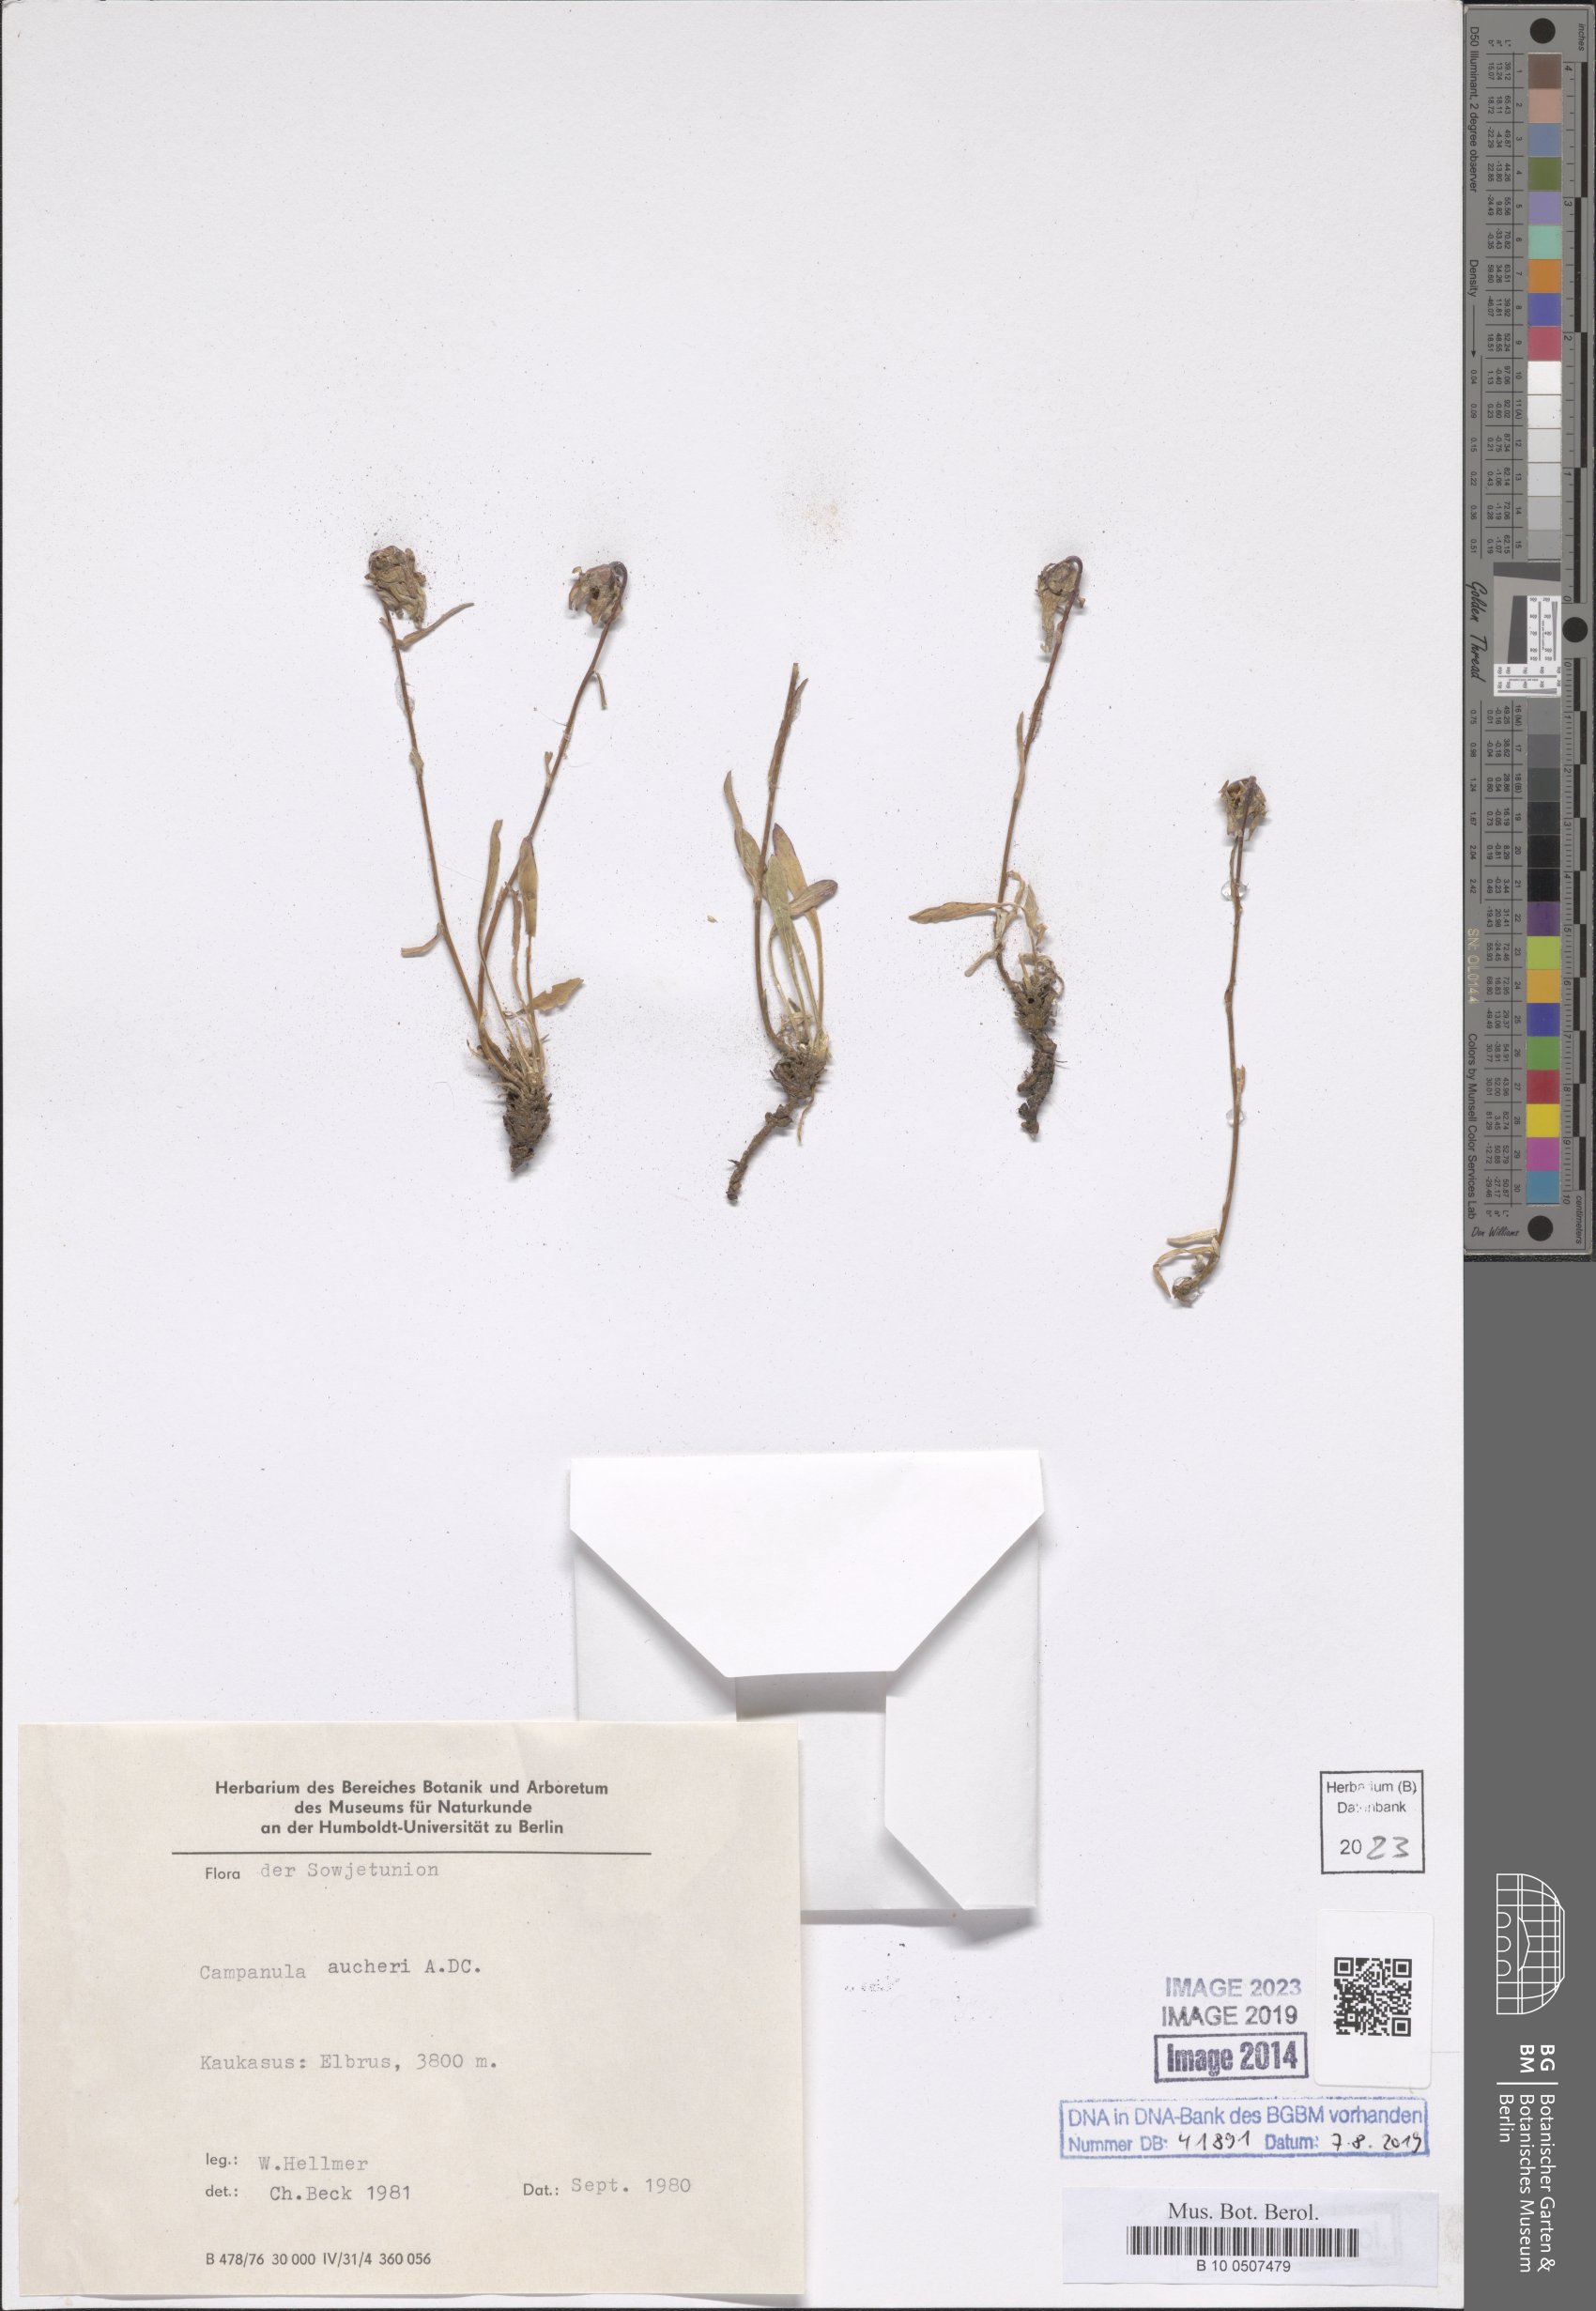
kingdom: Plantae
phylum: Tracheophyta
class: Magnoliopsida
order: Asterales
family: Campanulaceae
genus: Campanula
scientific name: Campanula saxifraga
